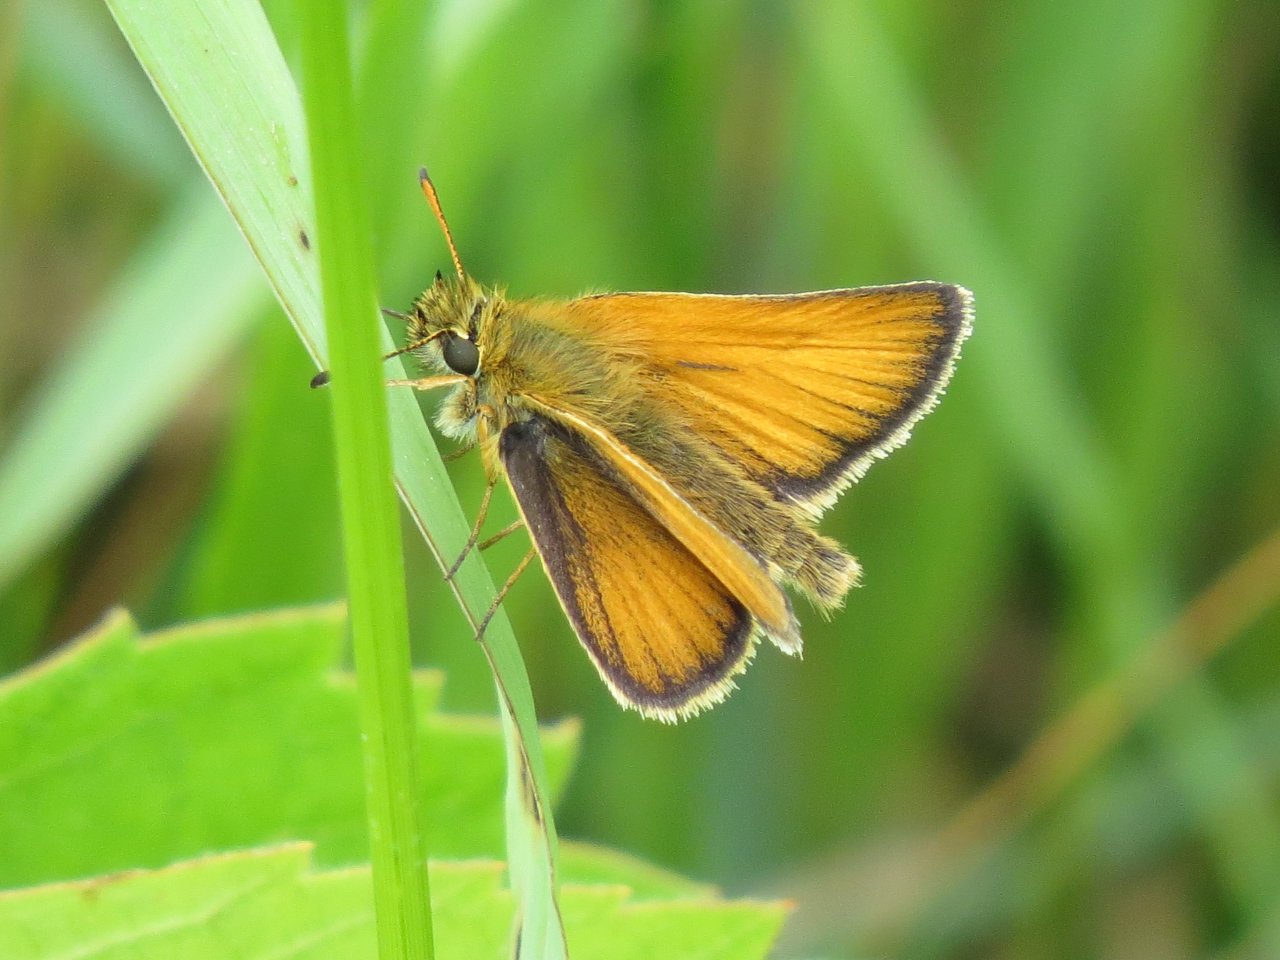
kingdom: Animalia
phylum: Arthropoda
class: Insecta
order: Lepidoptera
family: Hesperiidae
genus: Thymelicus
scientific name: Thymelicus lineola
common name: European Skipper
